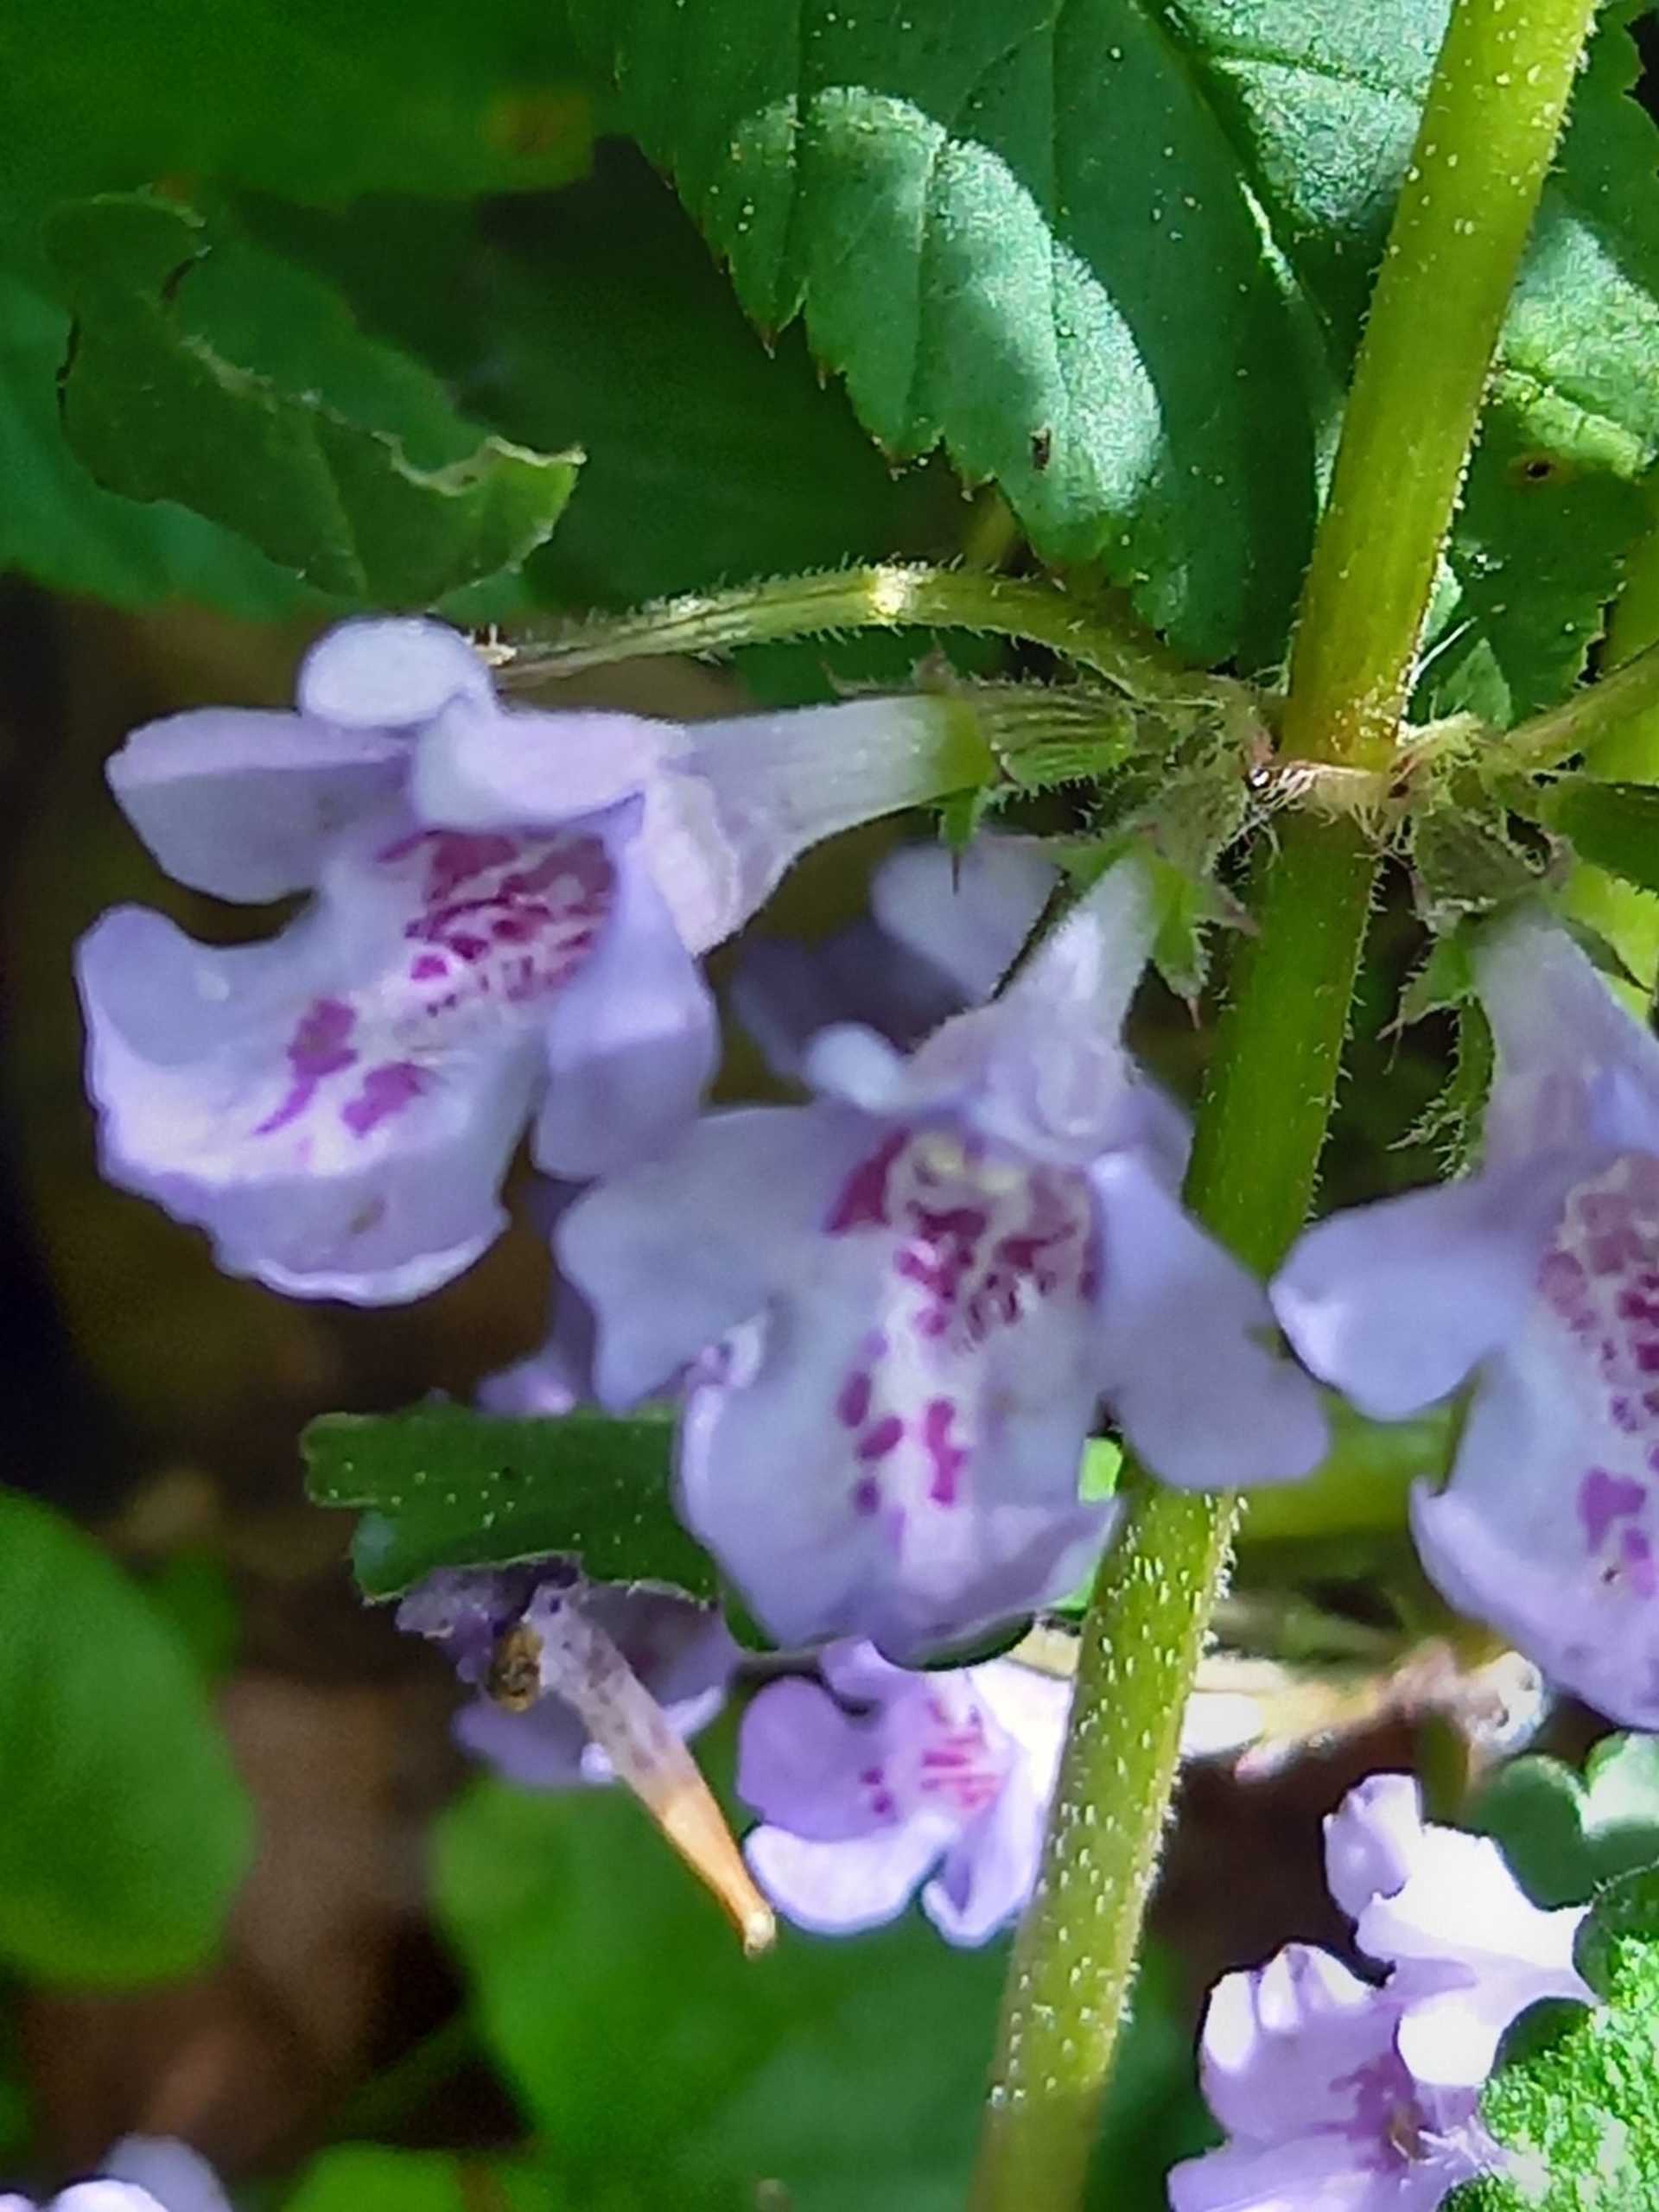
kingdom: Plantae
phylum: Tracheophyta
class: Magnoliopsida
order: Lamiales
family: Lamiaceae
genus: Glechoma
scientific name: Glechoma hederacea
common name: Korsknap
